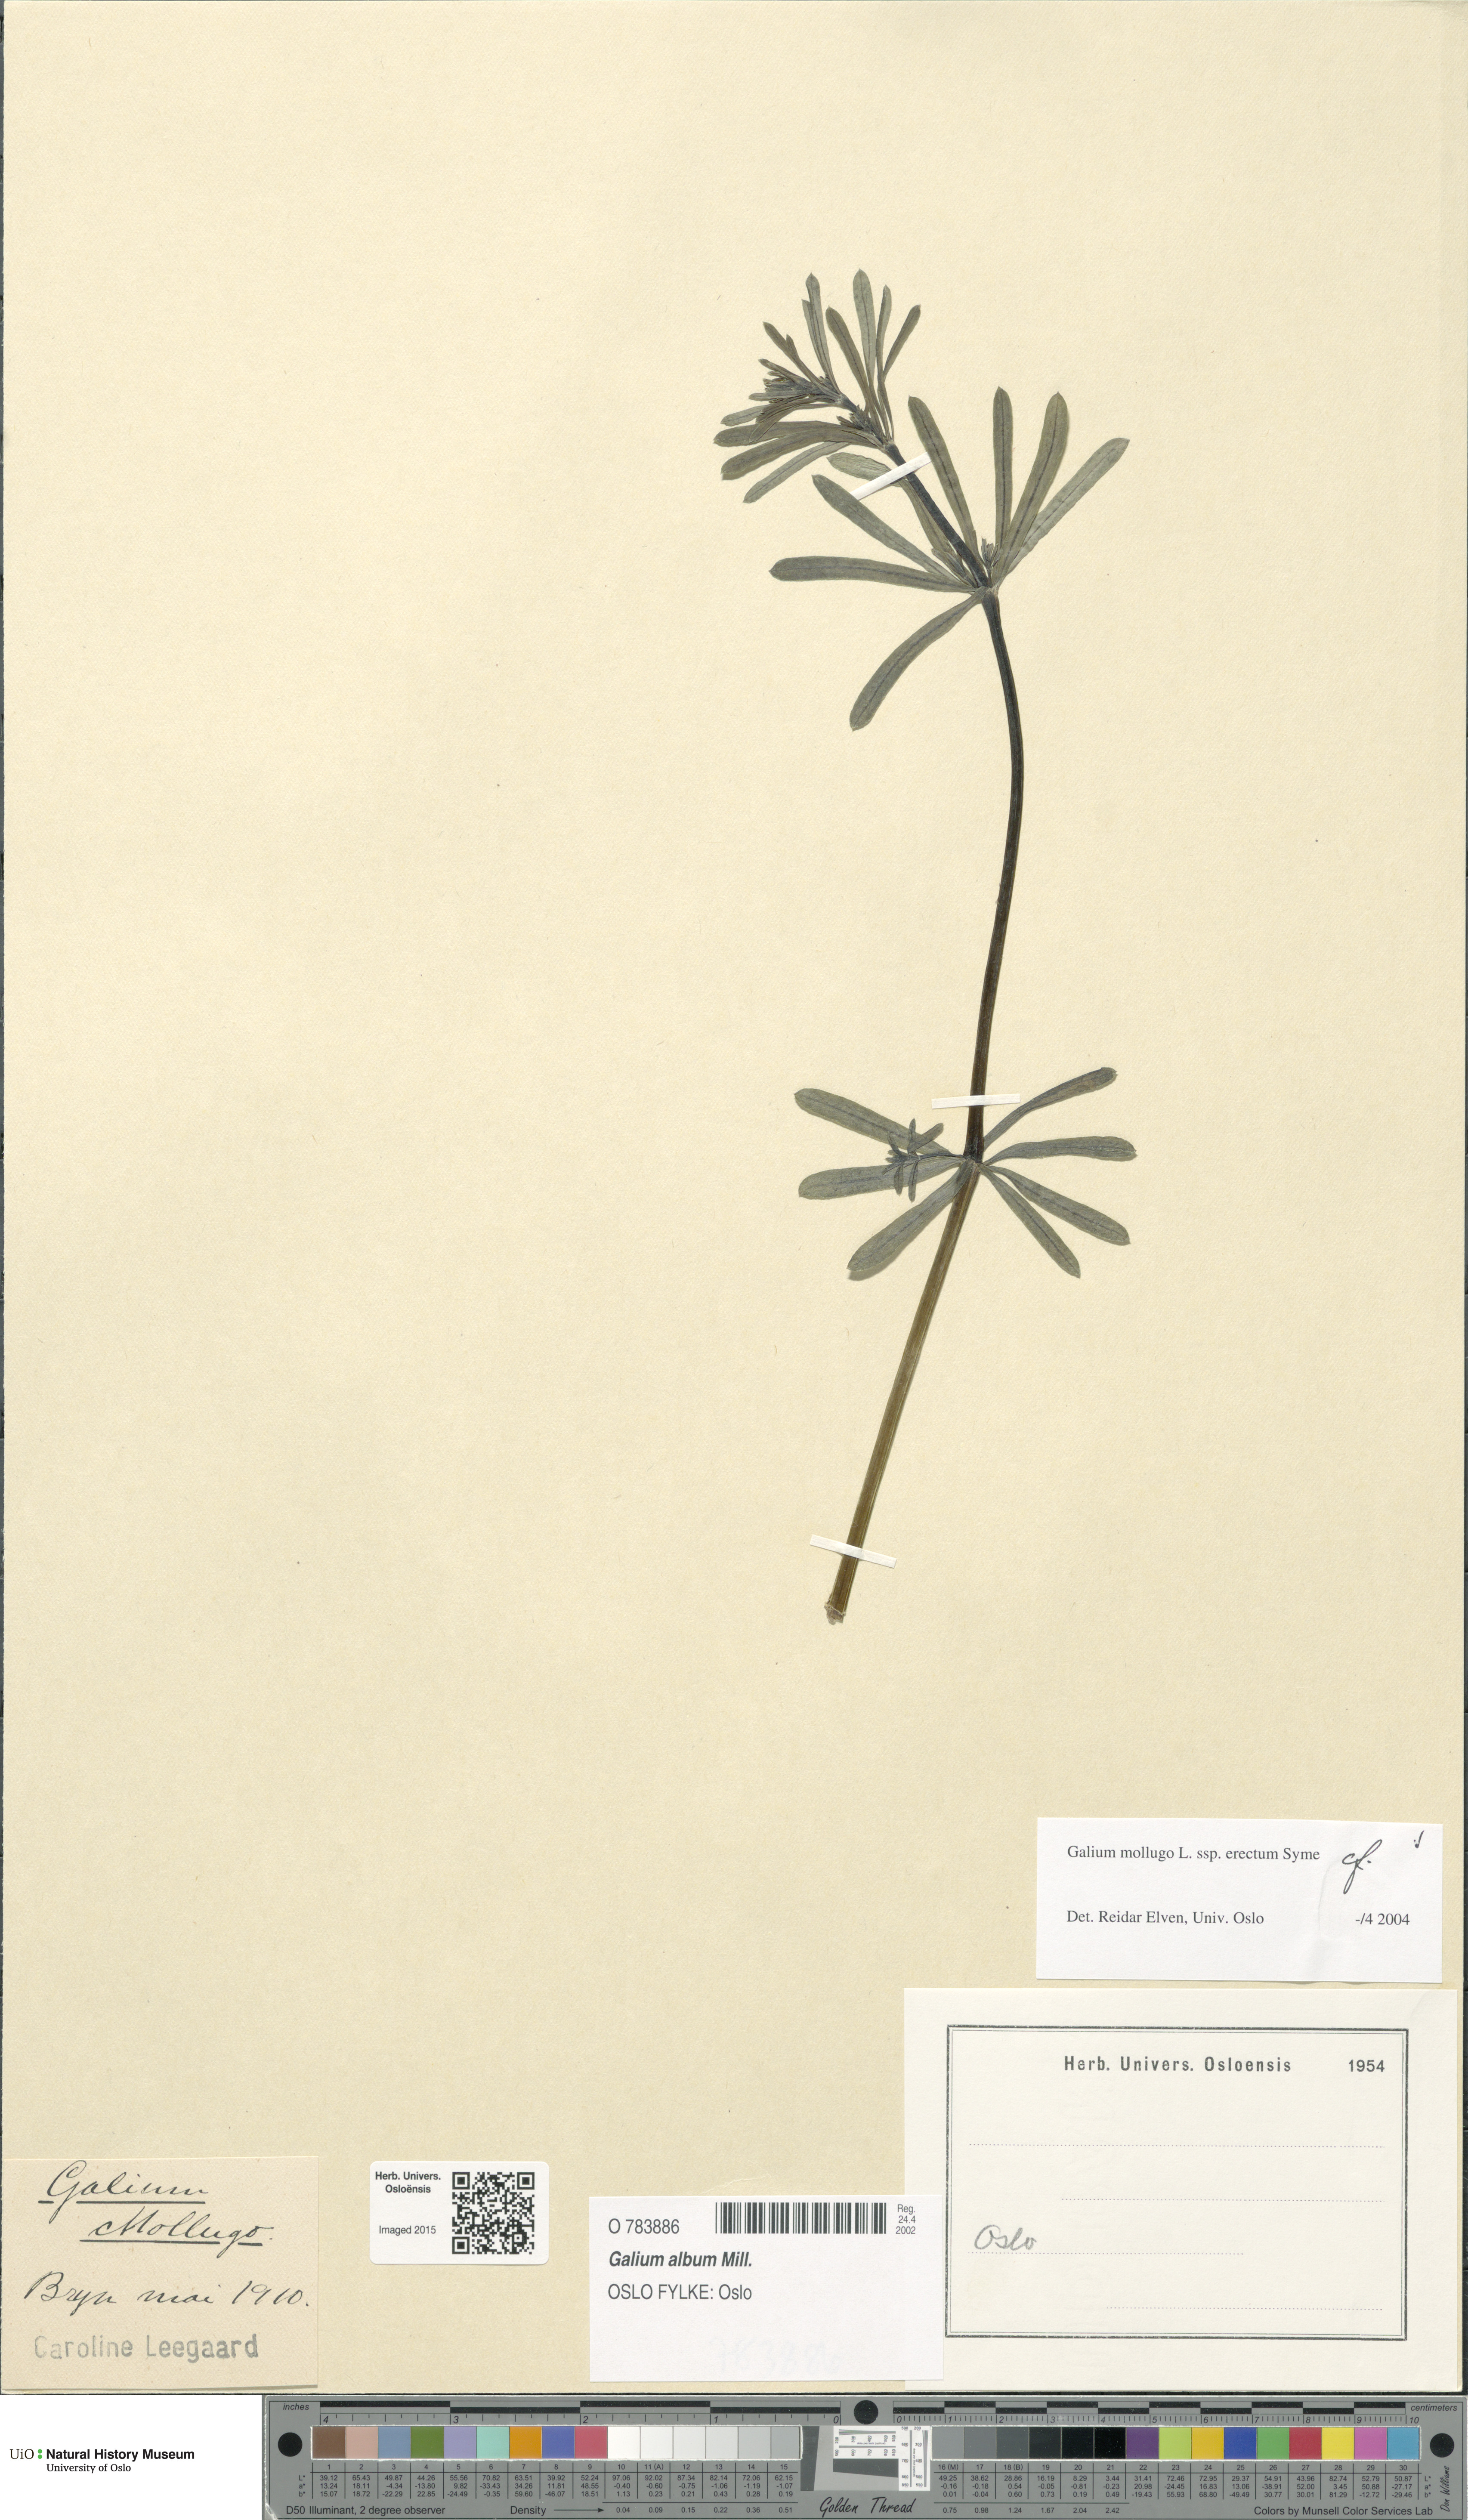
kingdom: Plantae
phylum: Tracheophyta
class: Magnoliopsida
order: Gentianales
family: Rubiaceae
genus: Galium
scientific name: Galium album
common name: White bedstraw
